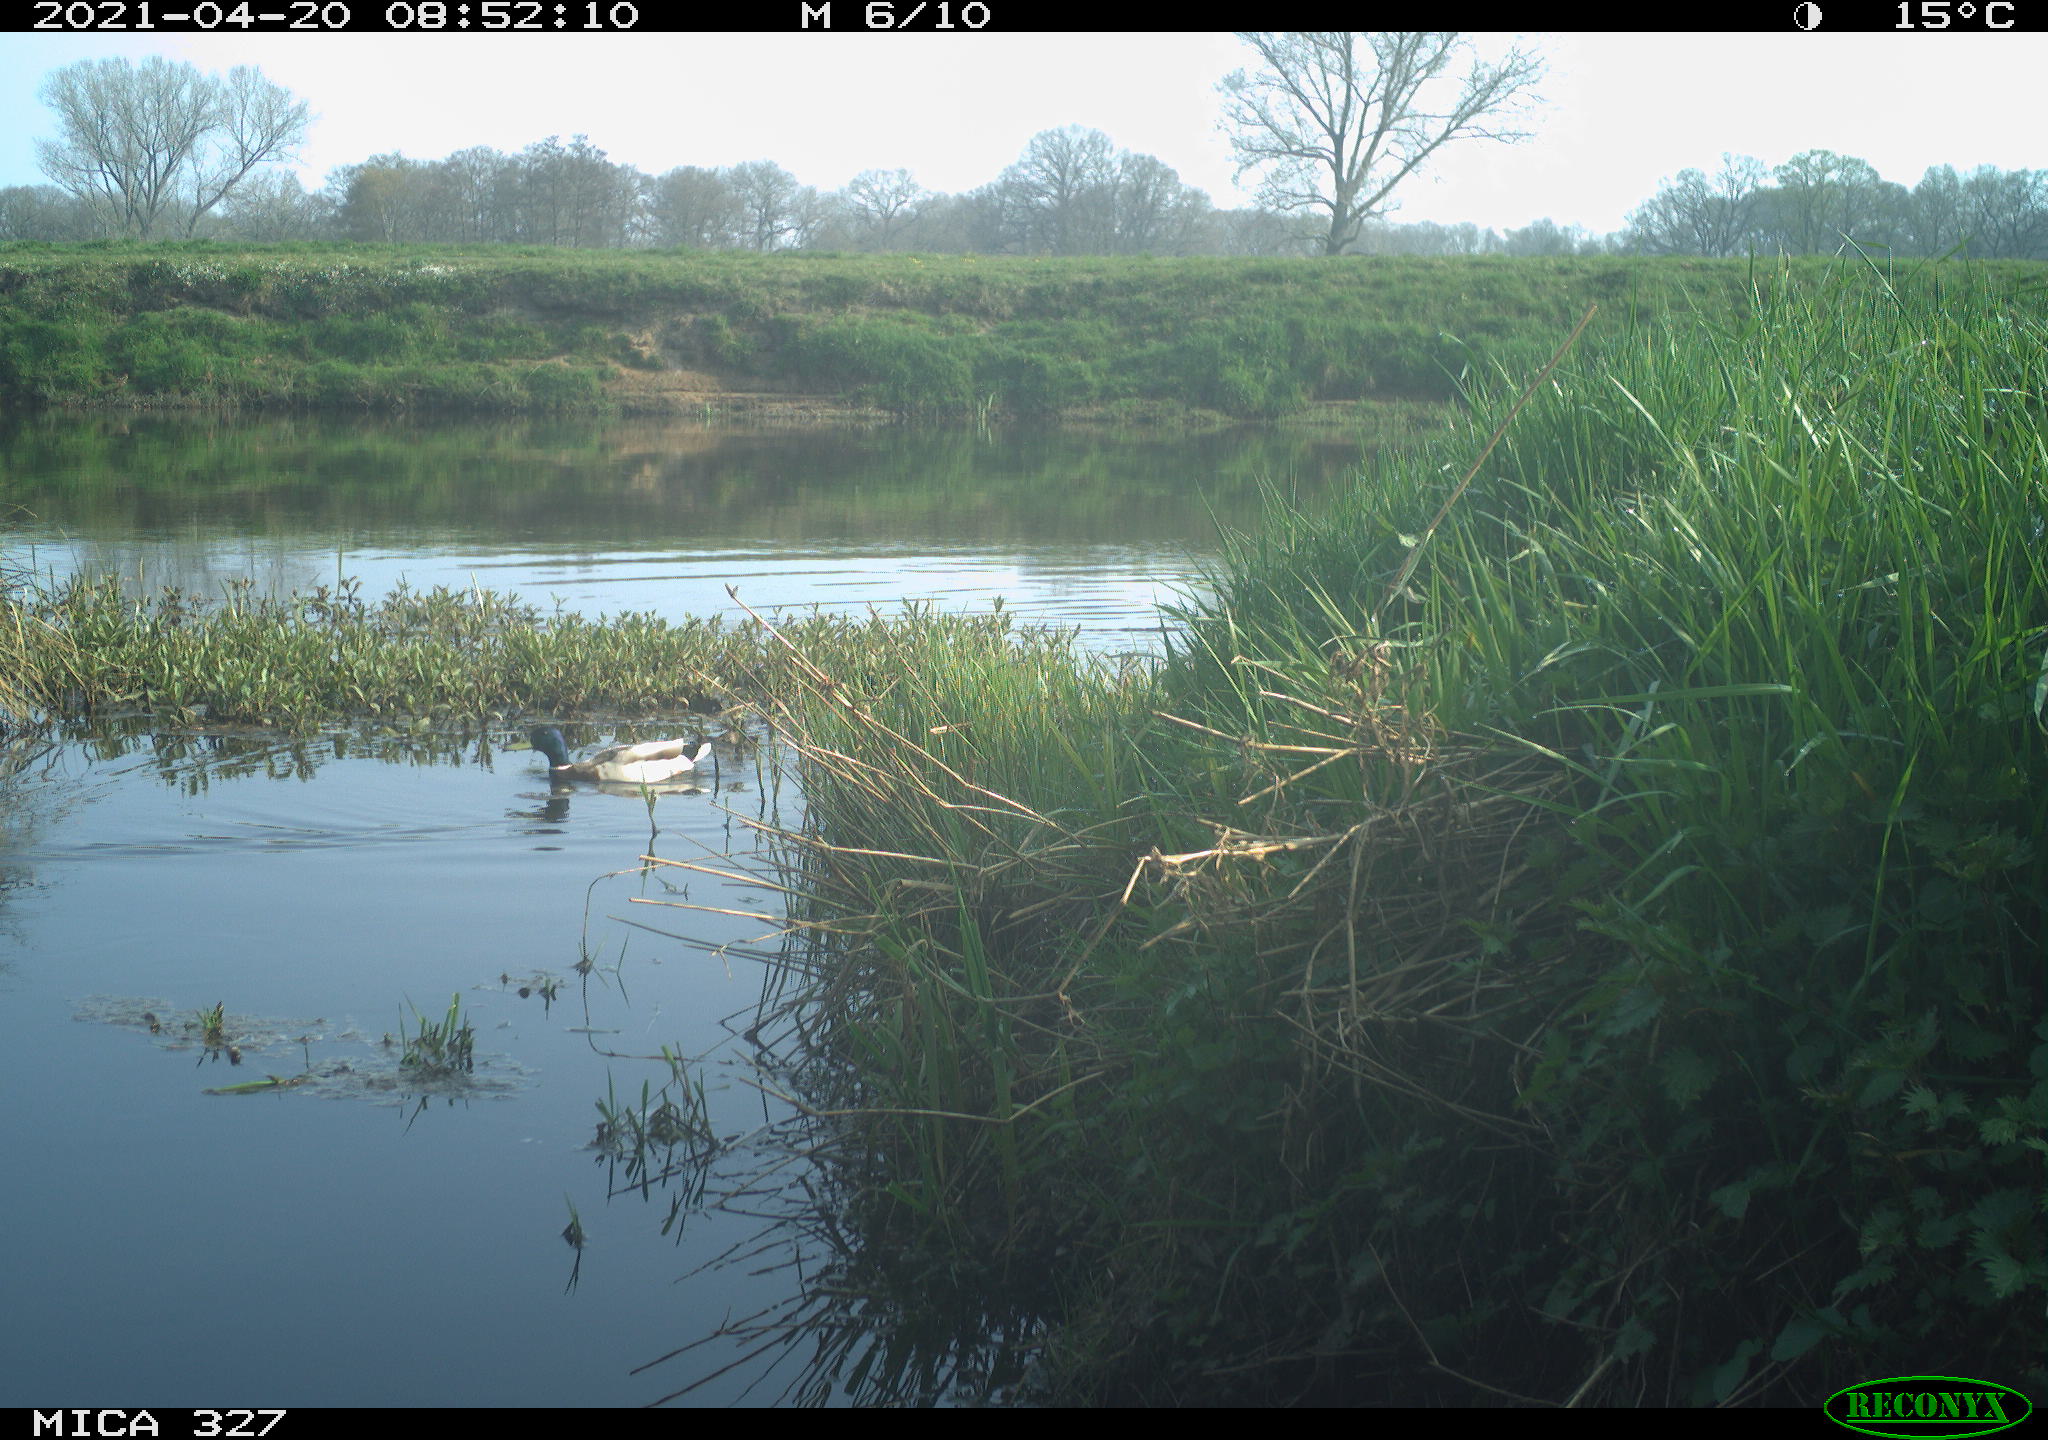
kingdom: Animalia
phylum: Chordata
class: Aves
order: Anseriformes
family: Anatidae
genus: Anas
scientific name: Anas platyrhynchos
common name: Mallard
